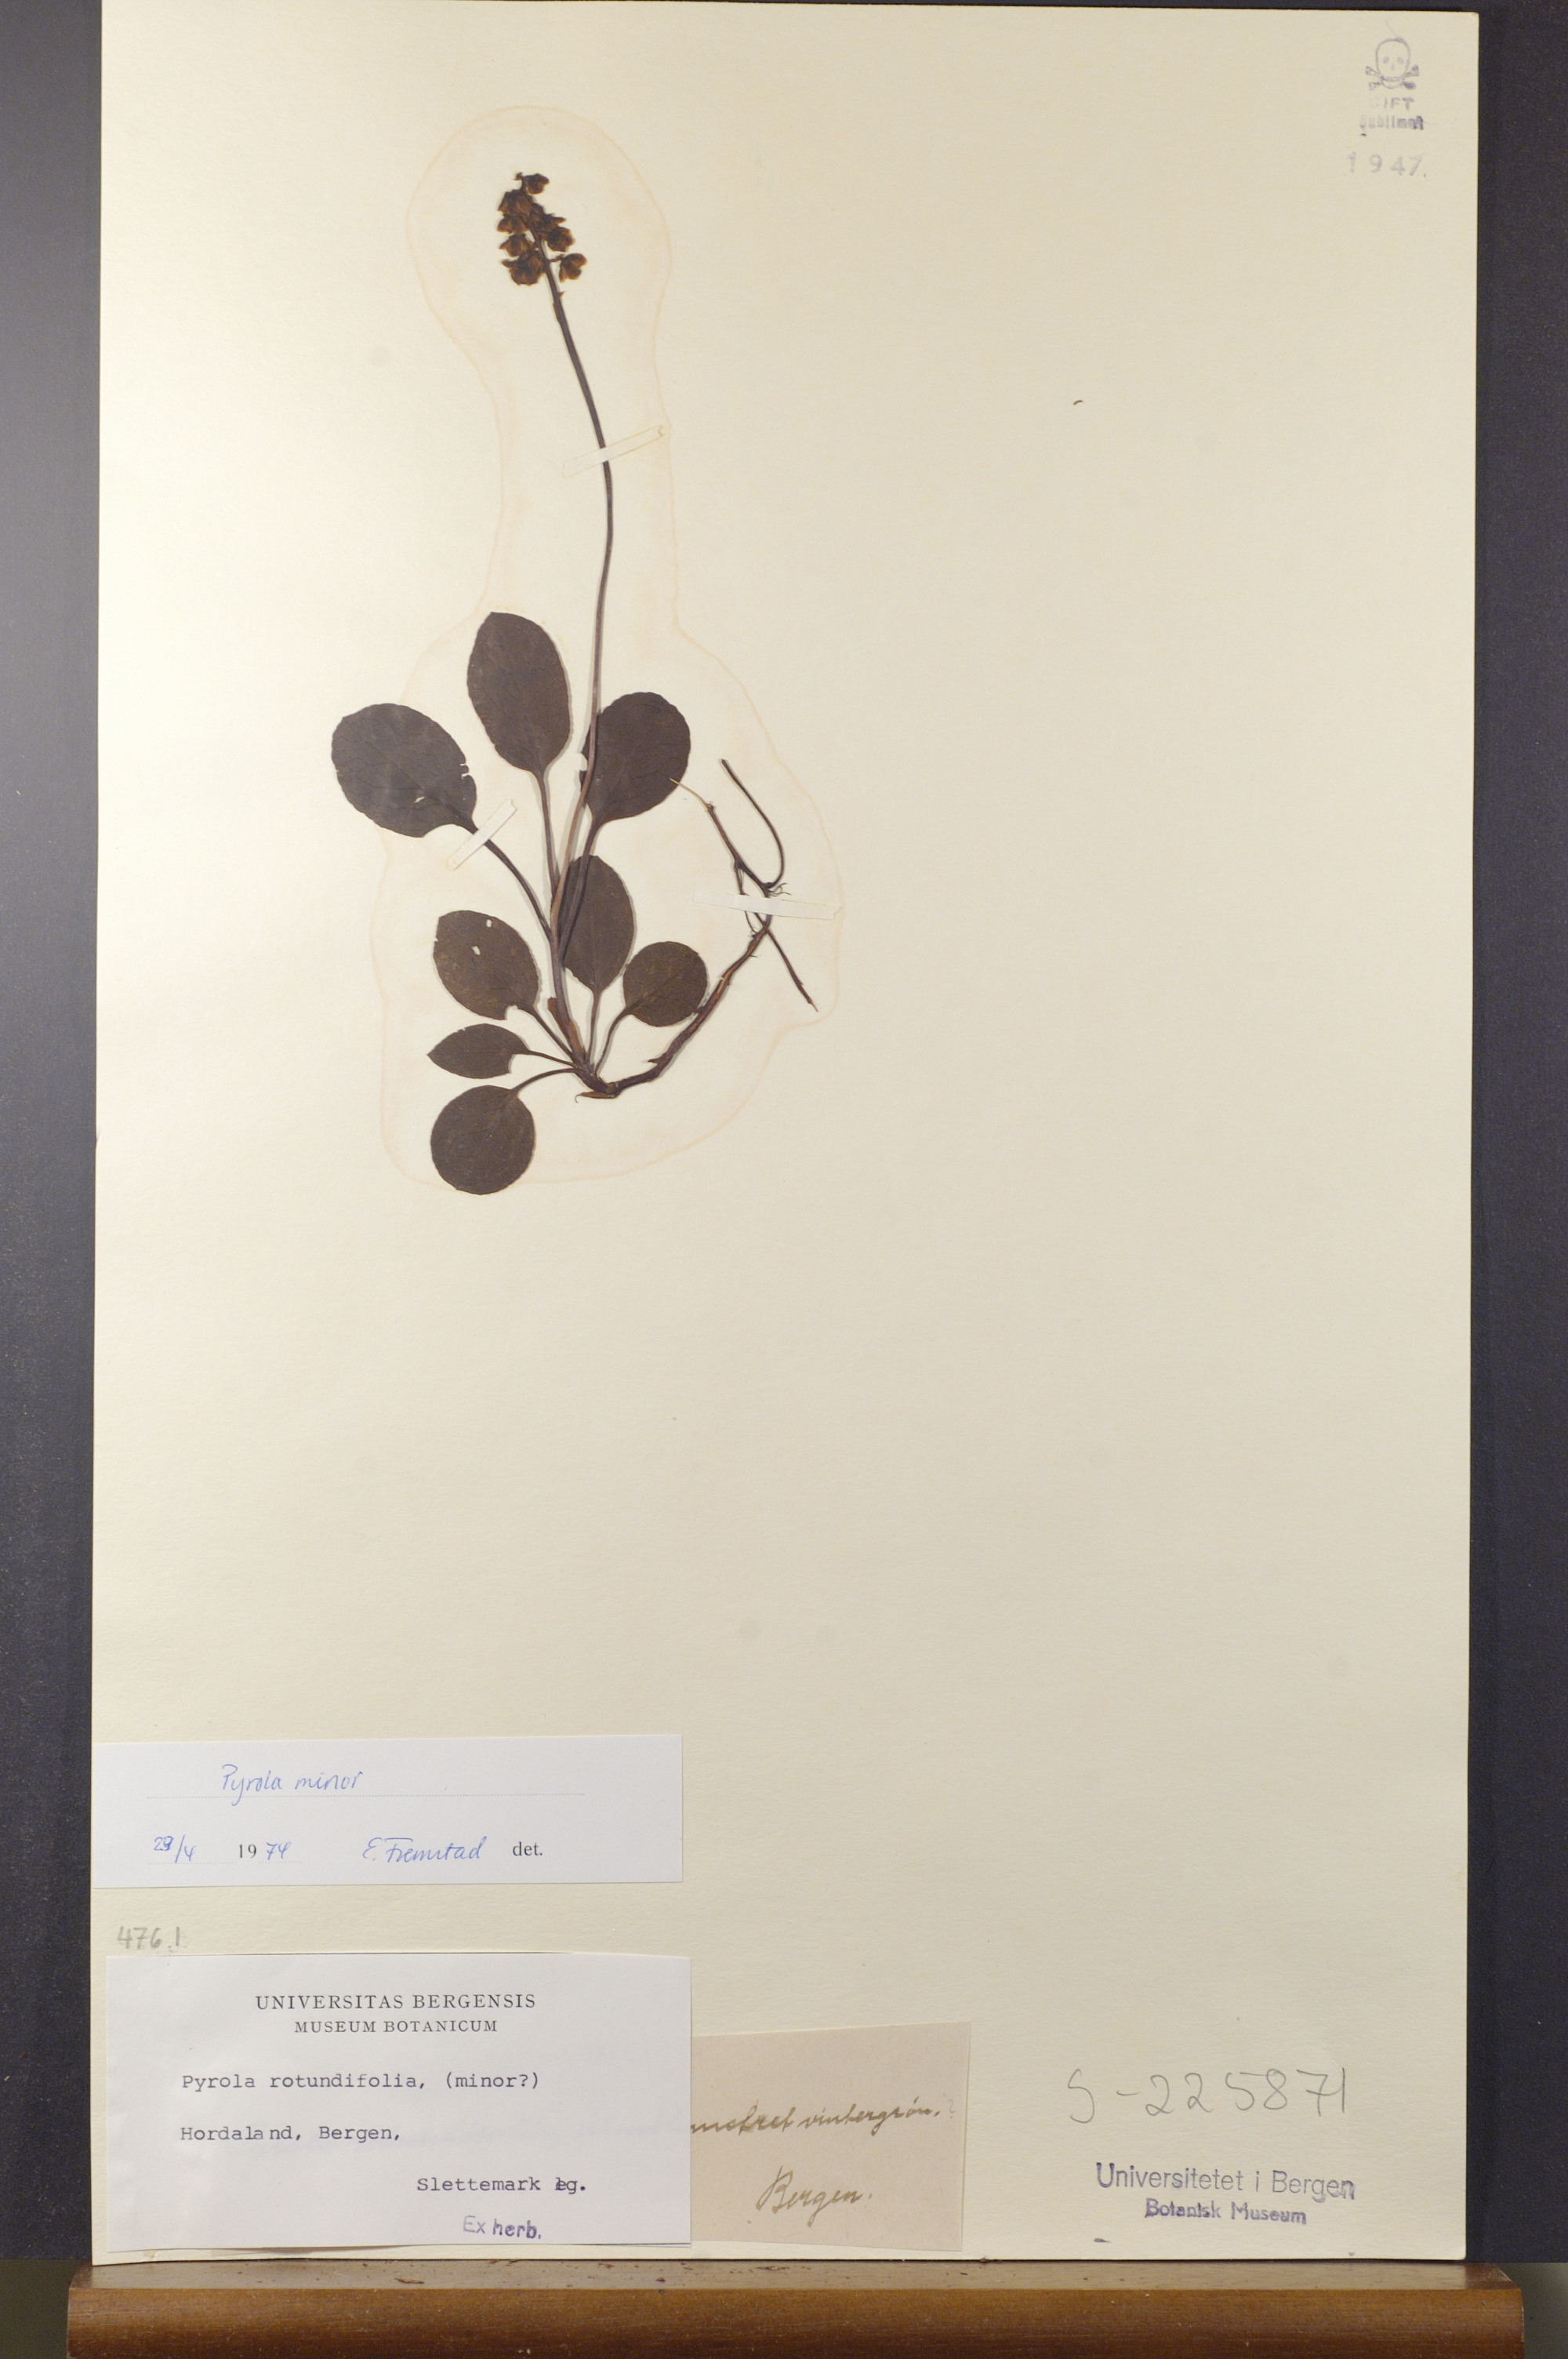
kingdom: Plantae
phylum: Tracheophyta
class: Magnoliopsida
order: Ericales
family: Ericaceae
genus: Pyrola
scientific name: Pyrola minor
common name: Common wintergreen
